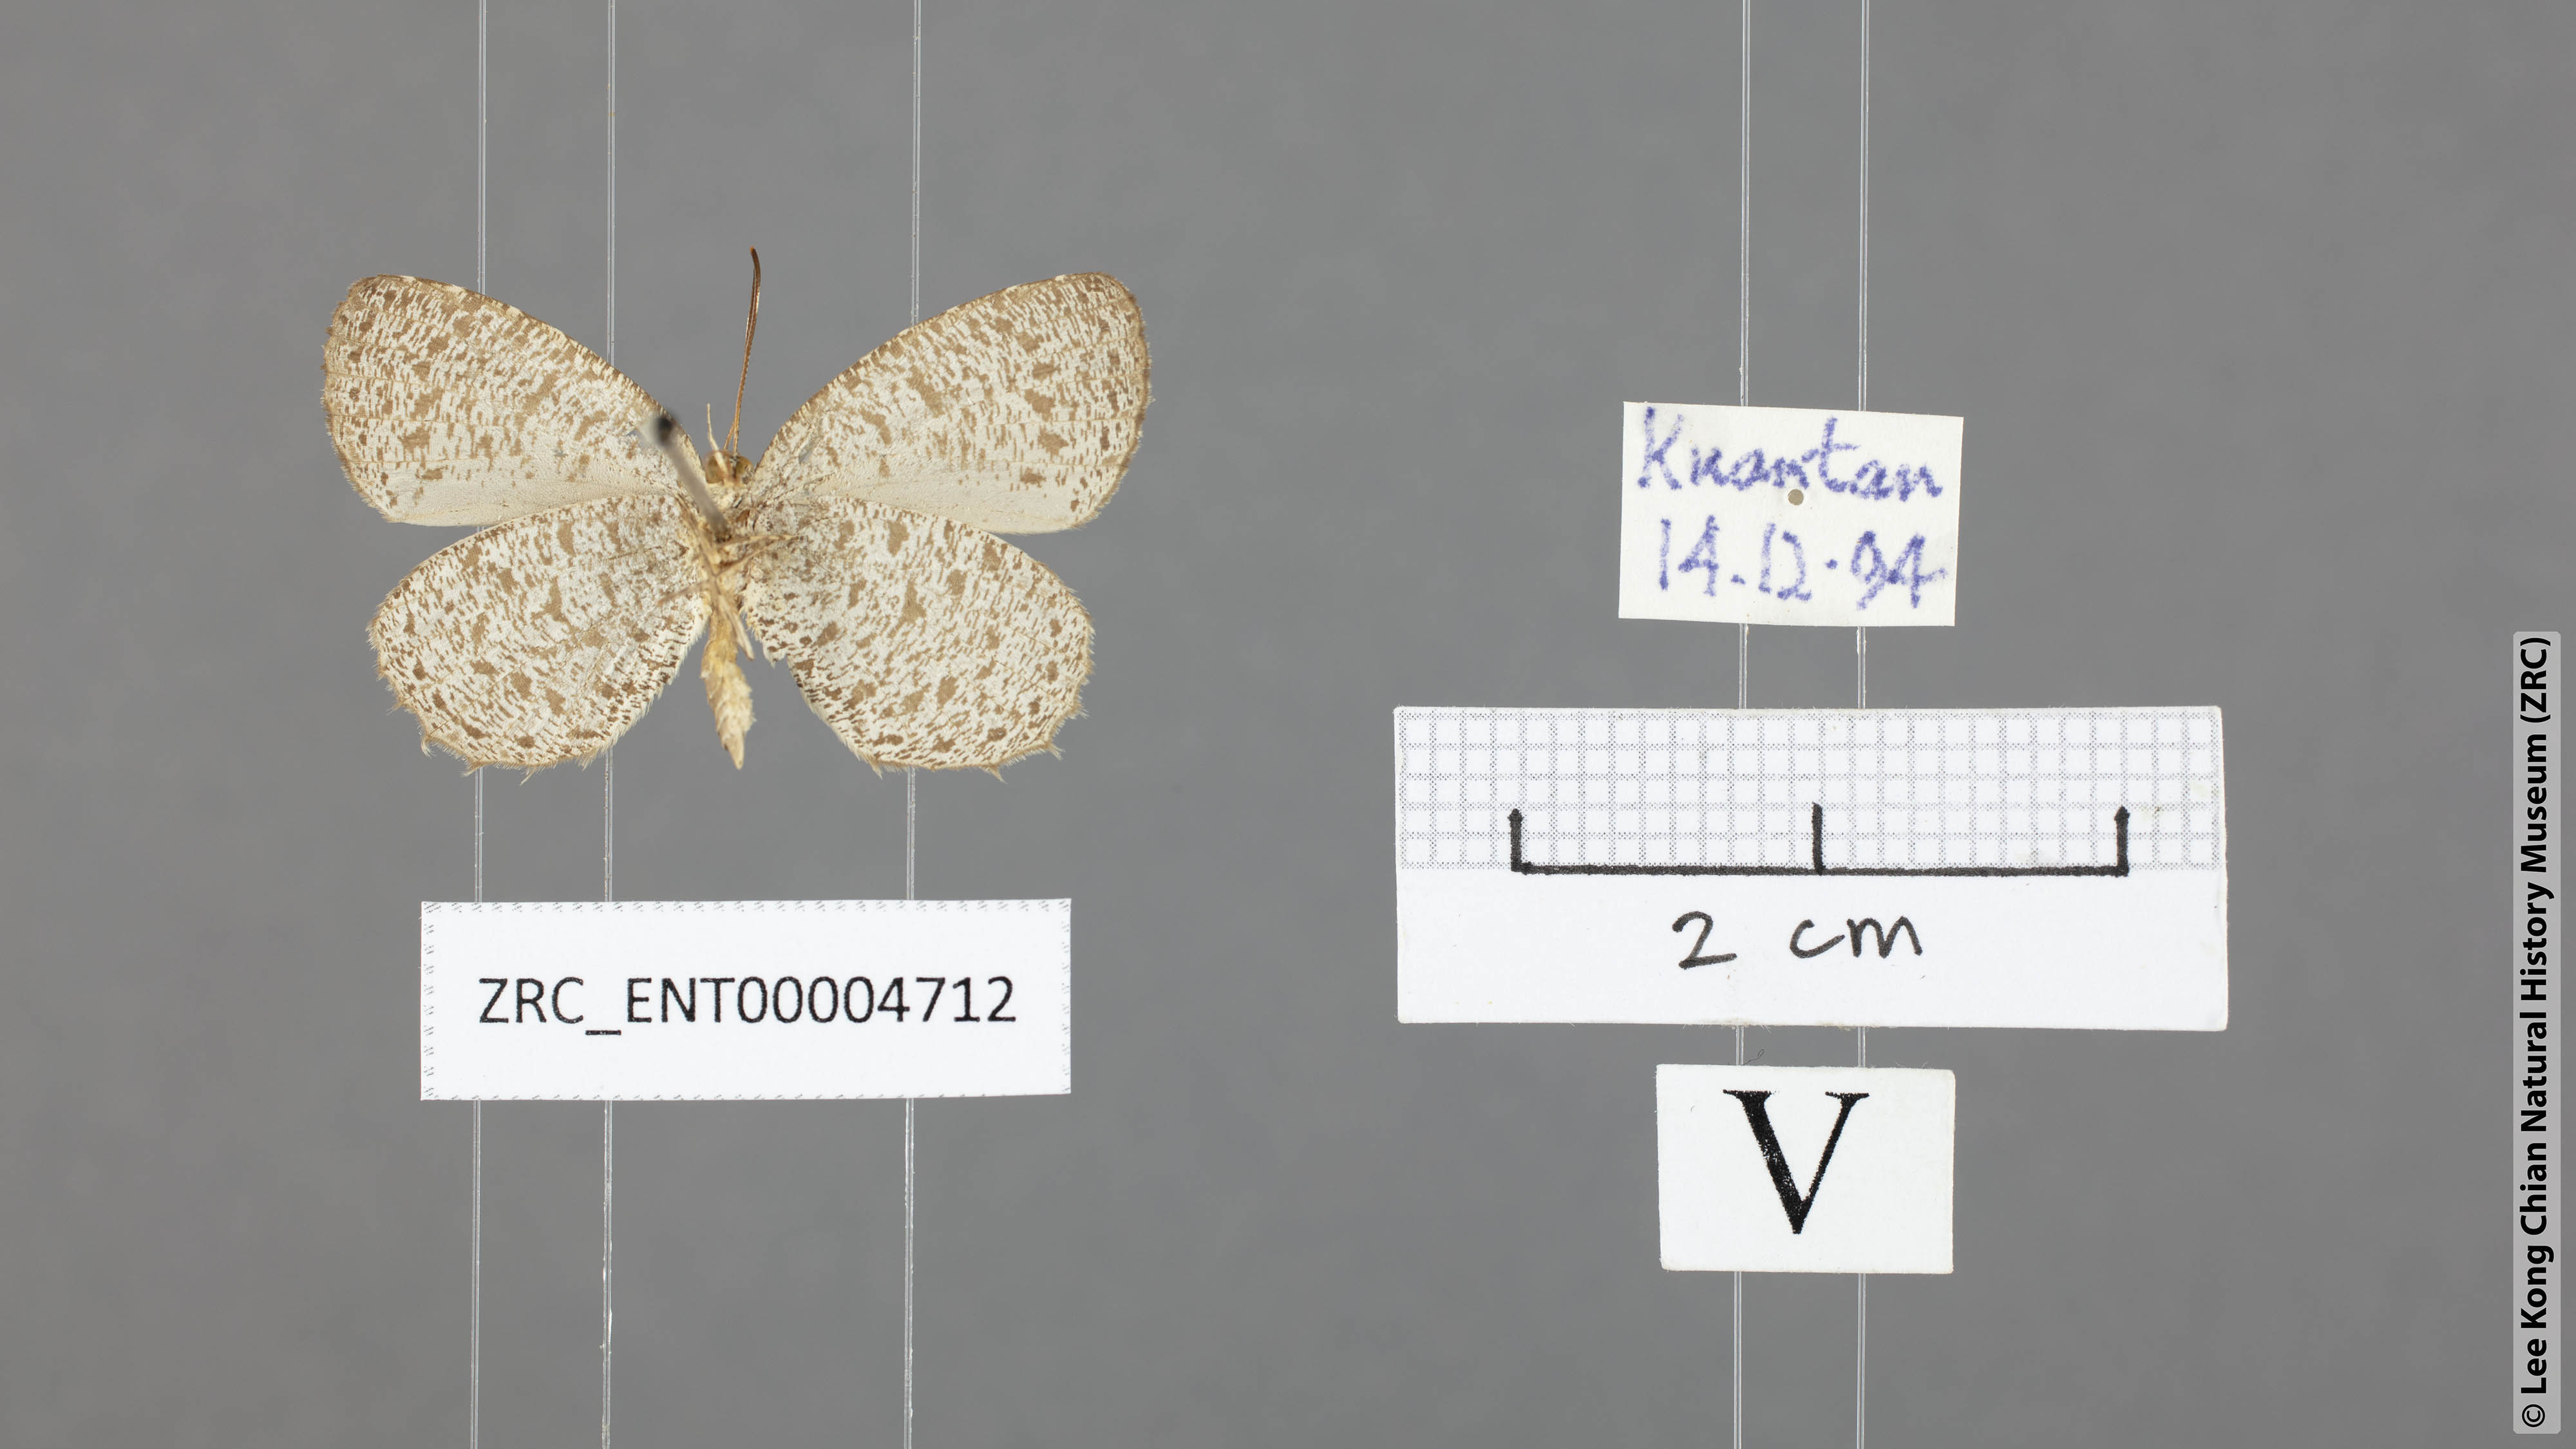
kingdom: Animalia
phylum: Arthropoda
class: Insecta
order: Lepidoptera
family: Lycaenidae
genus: Allotinus
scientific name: Allotinus unicolor
